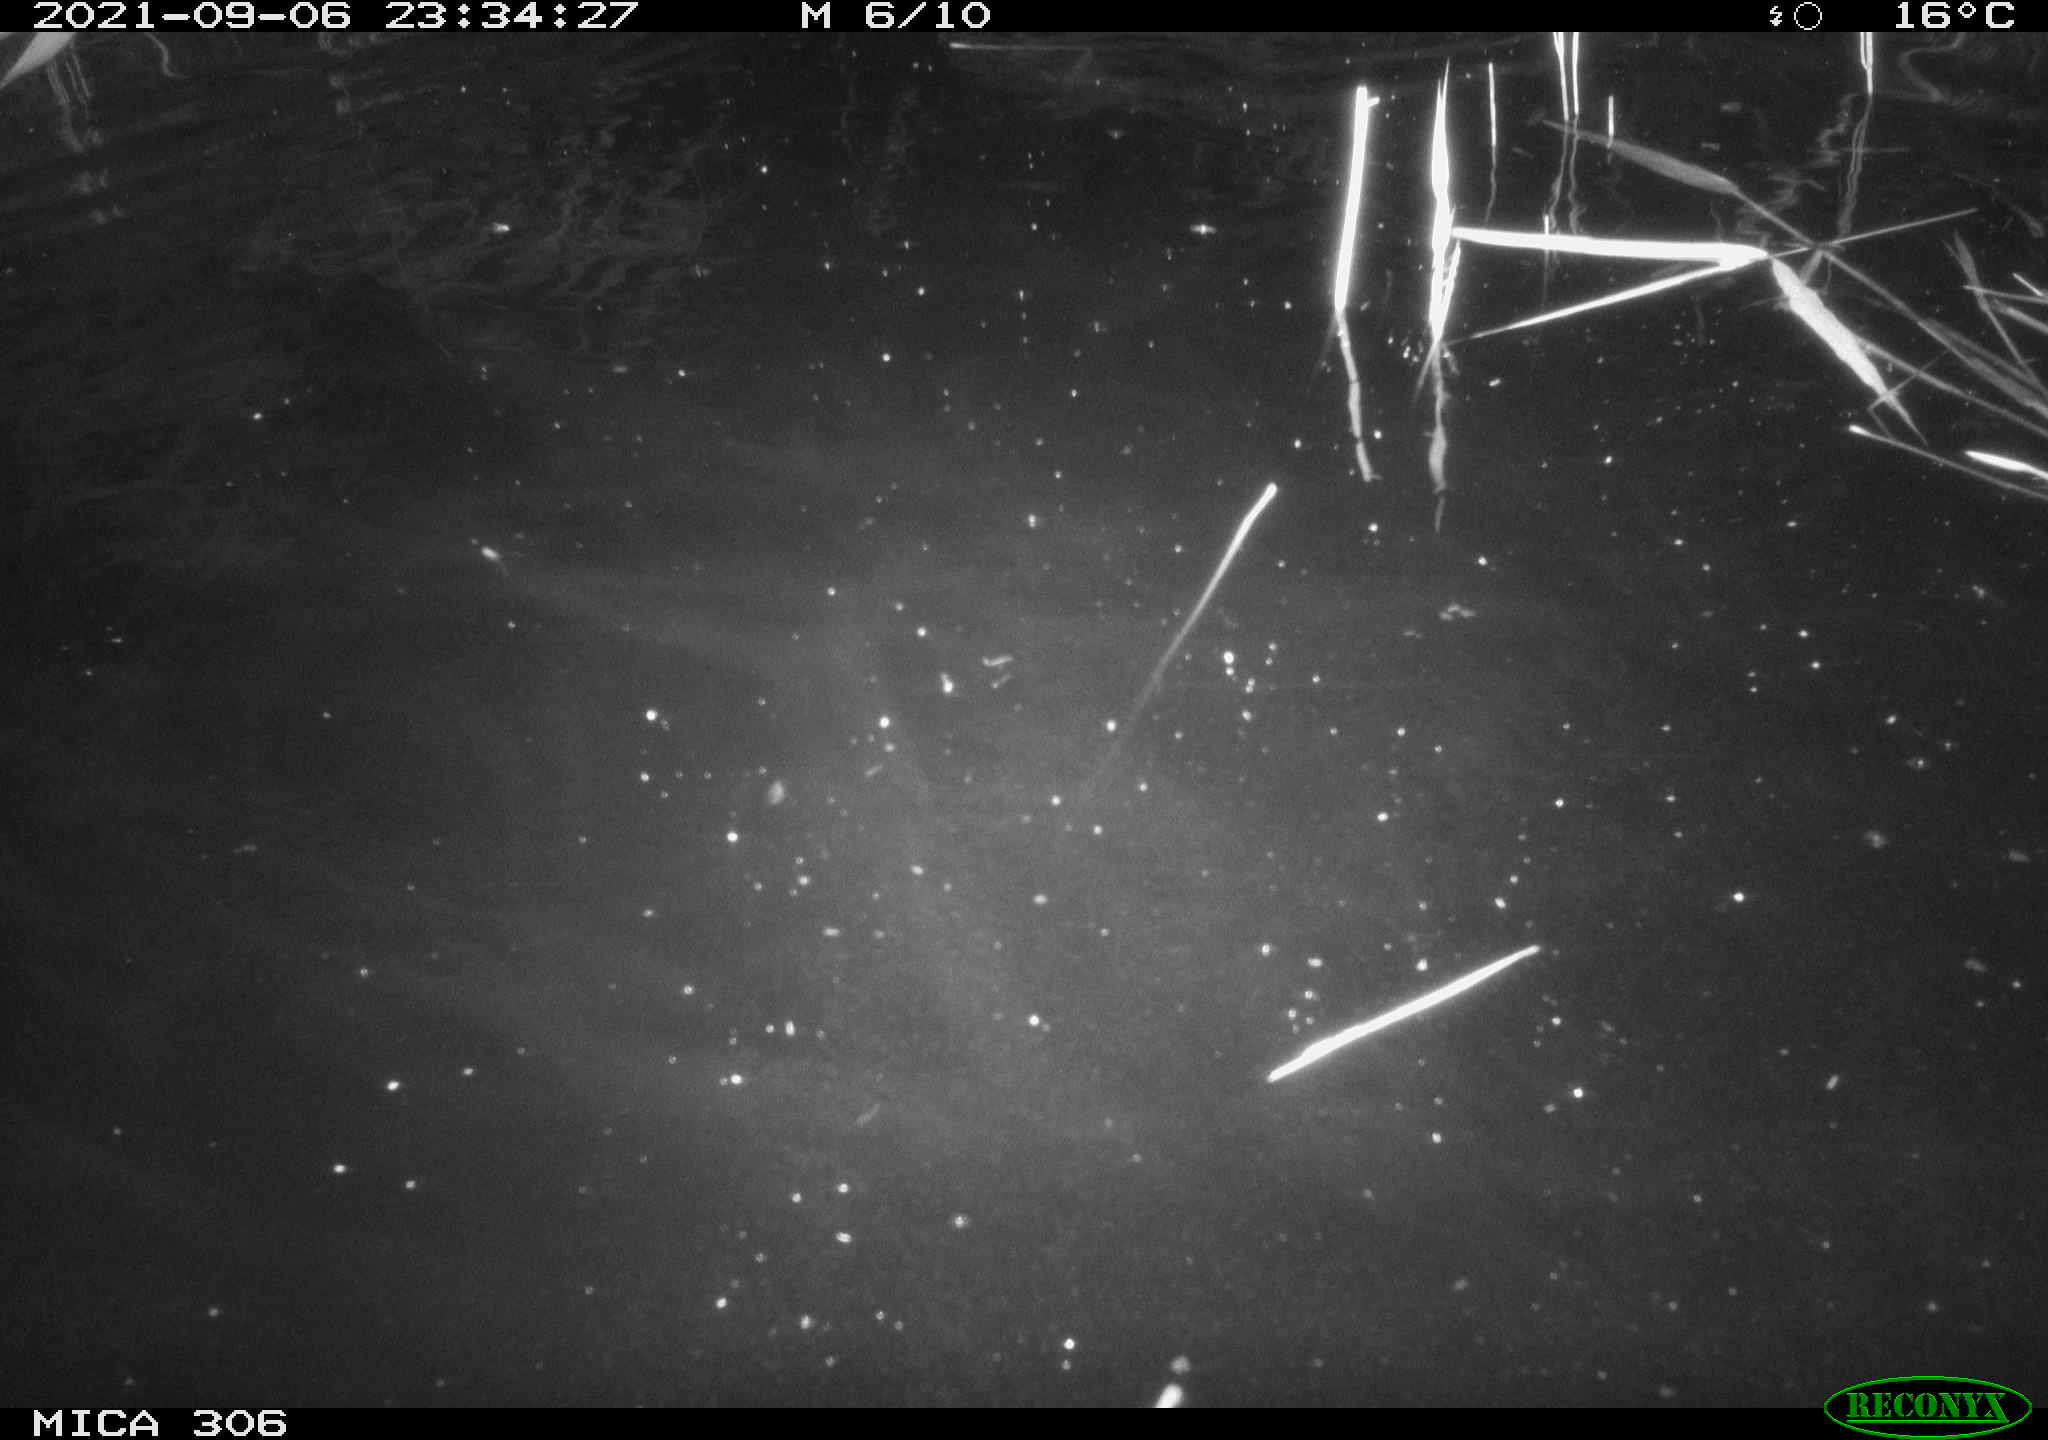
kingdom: Animalia
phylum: Chordata
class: Mammalia
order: Rodentia
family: Cricetidae
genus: Ondatra
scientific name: Ondatra zibethicus
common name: Muskrat
